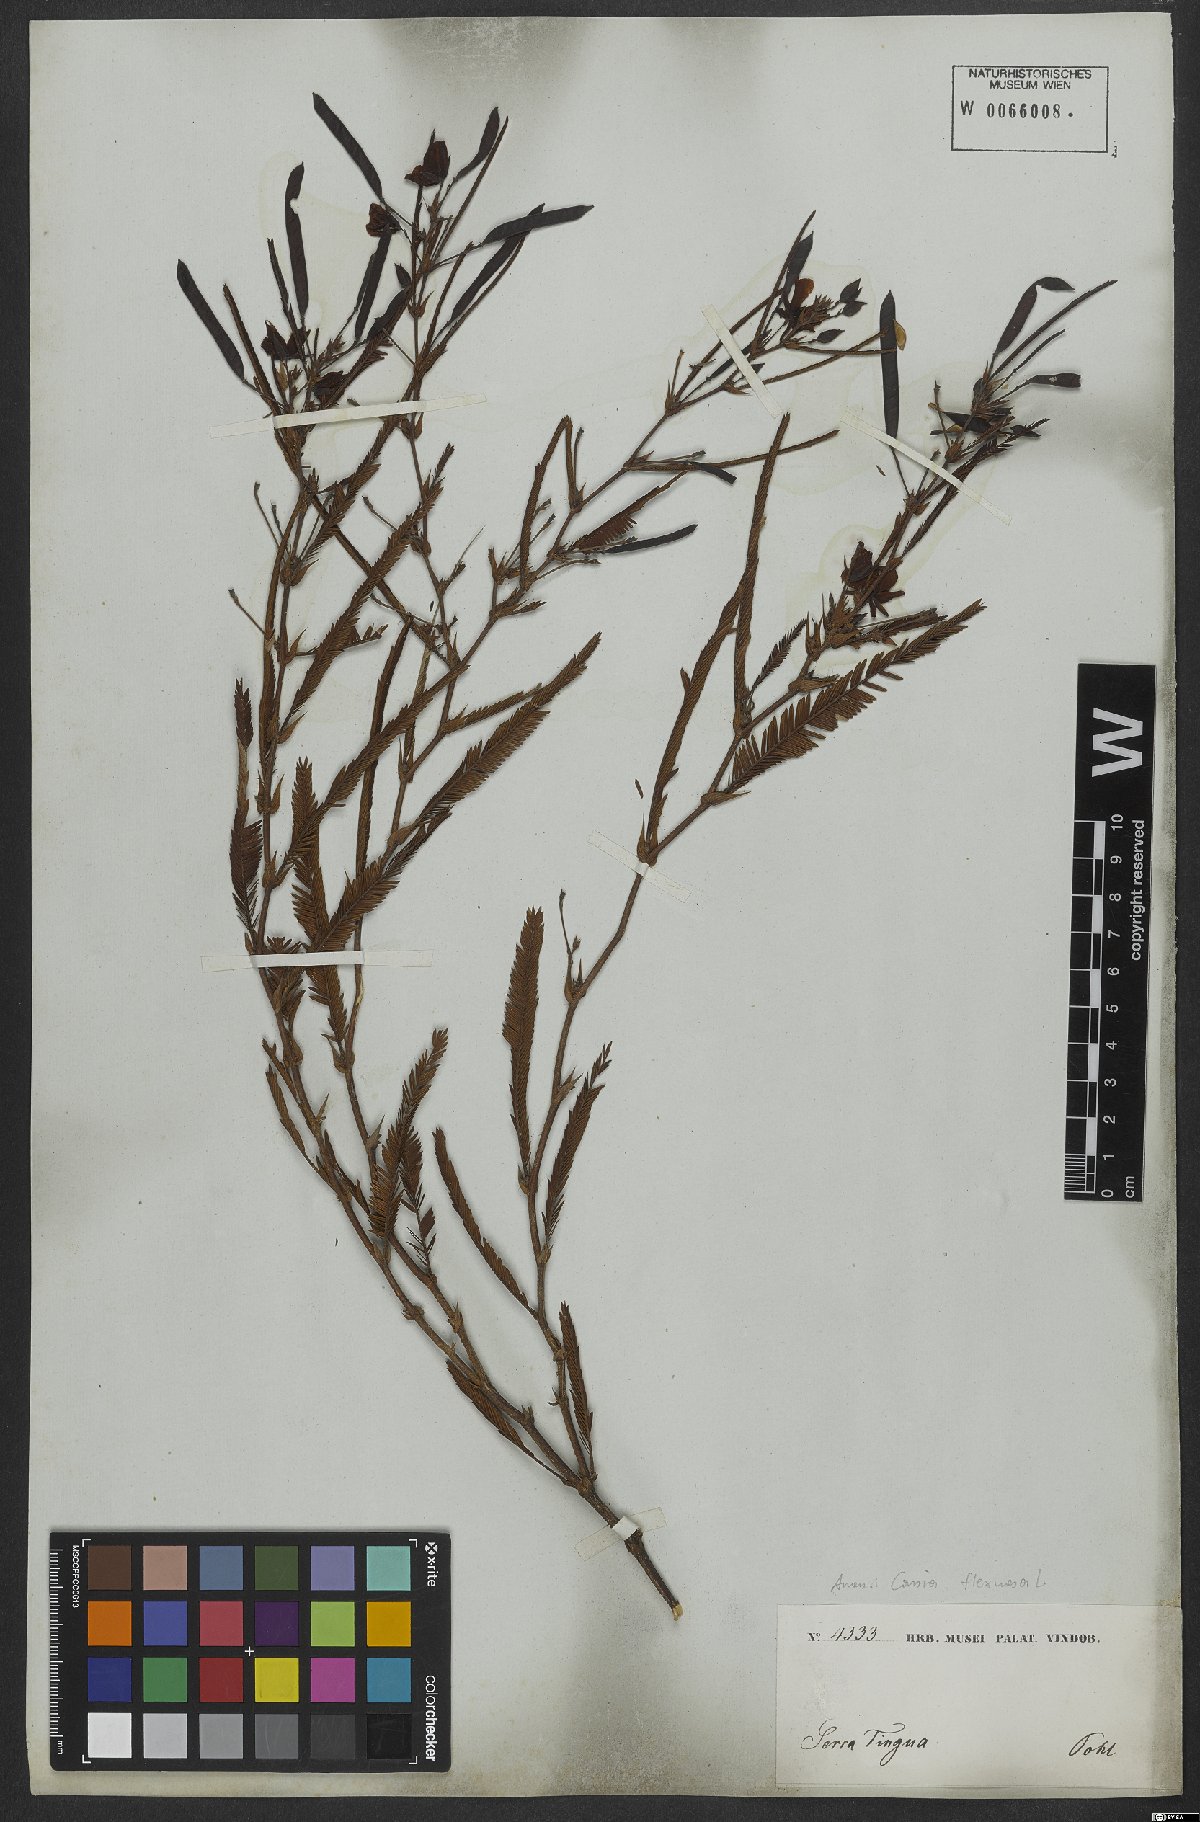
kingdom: Plantae
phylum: Tracheophyta
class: Magnoliopsida
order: Fabales
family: Fabaceae
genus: Chamaecrista
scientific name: Chamaecrista flexuosa
